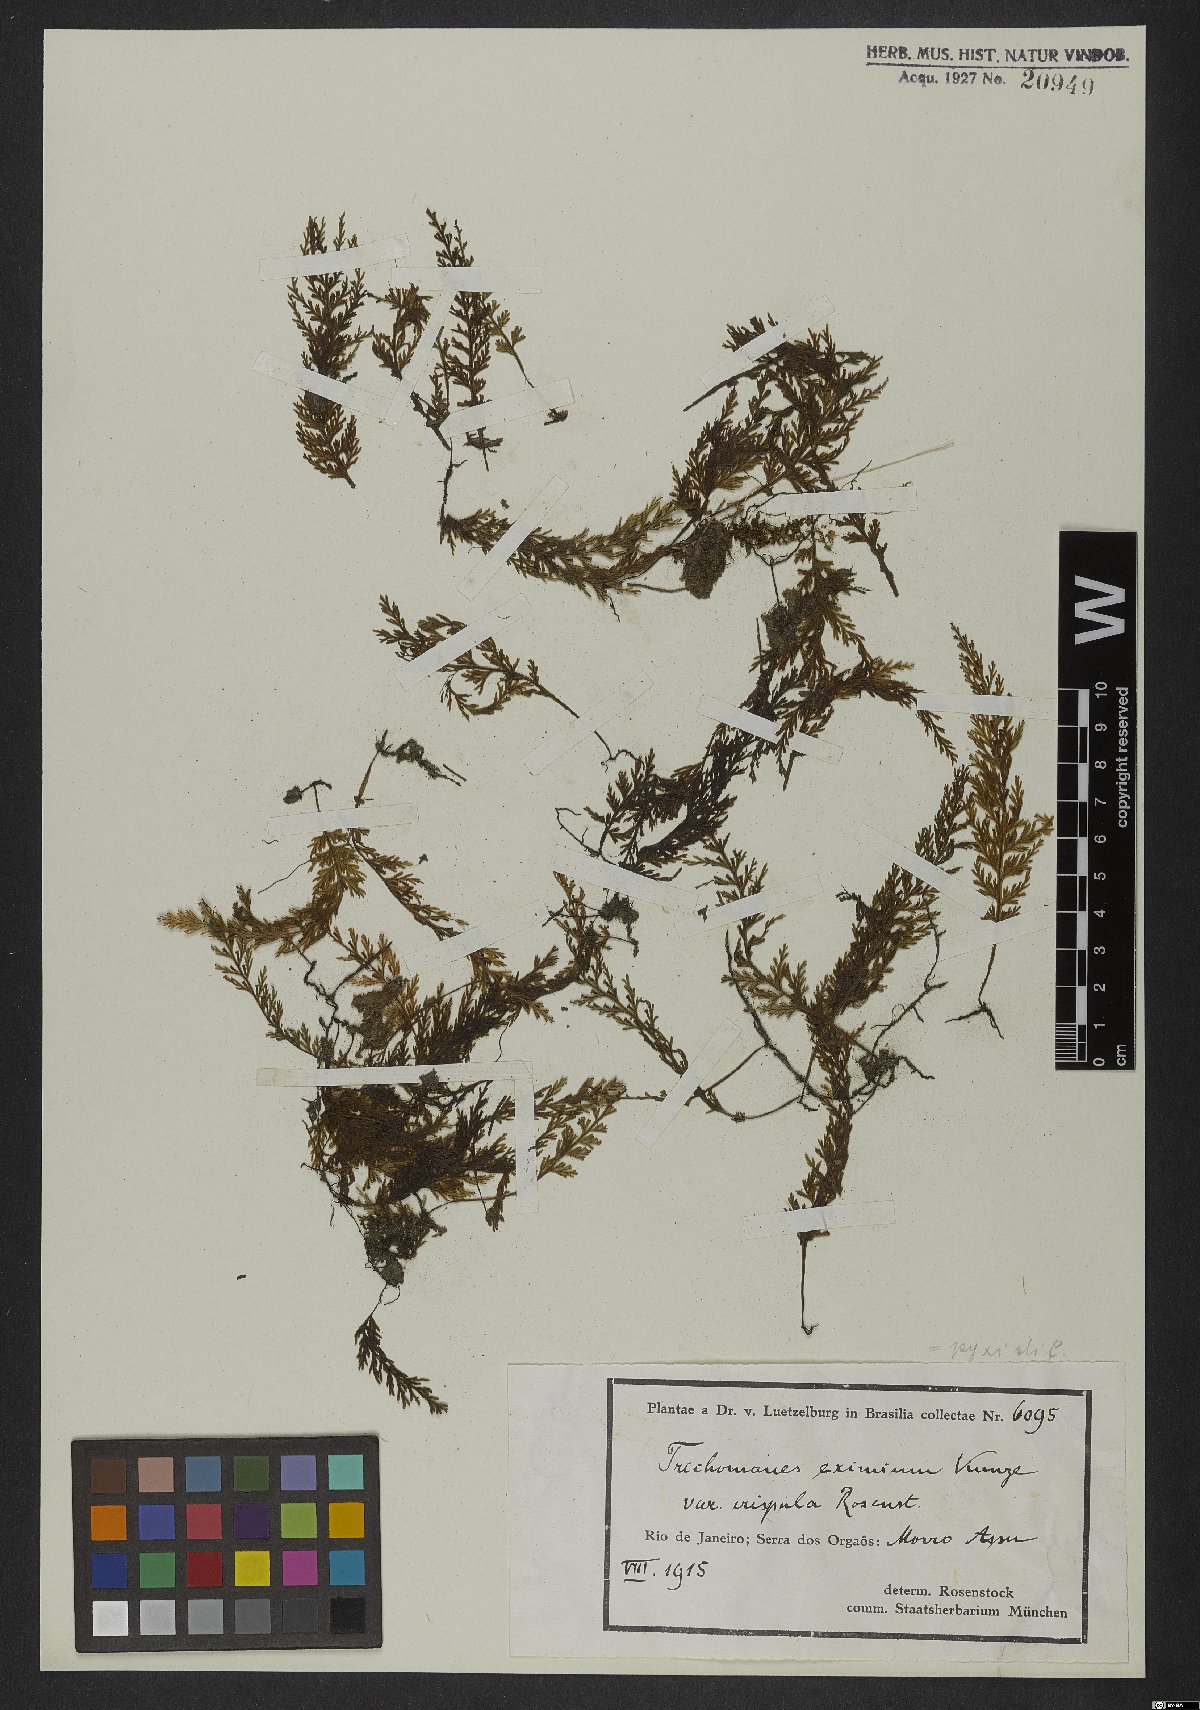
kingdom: Plantae
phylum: Tracheophyta
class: Polypodiopsida
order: Hymenophyllales
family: Hymenophyllaceae
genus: Polyphlebium
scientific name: Polyphlebium pyxidiferum
